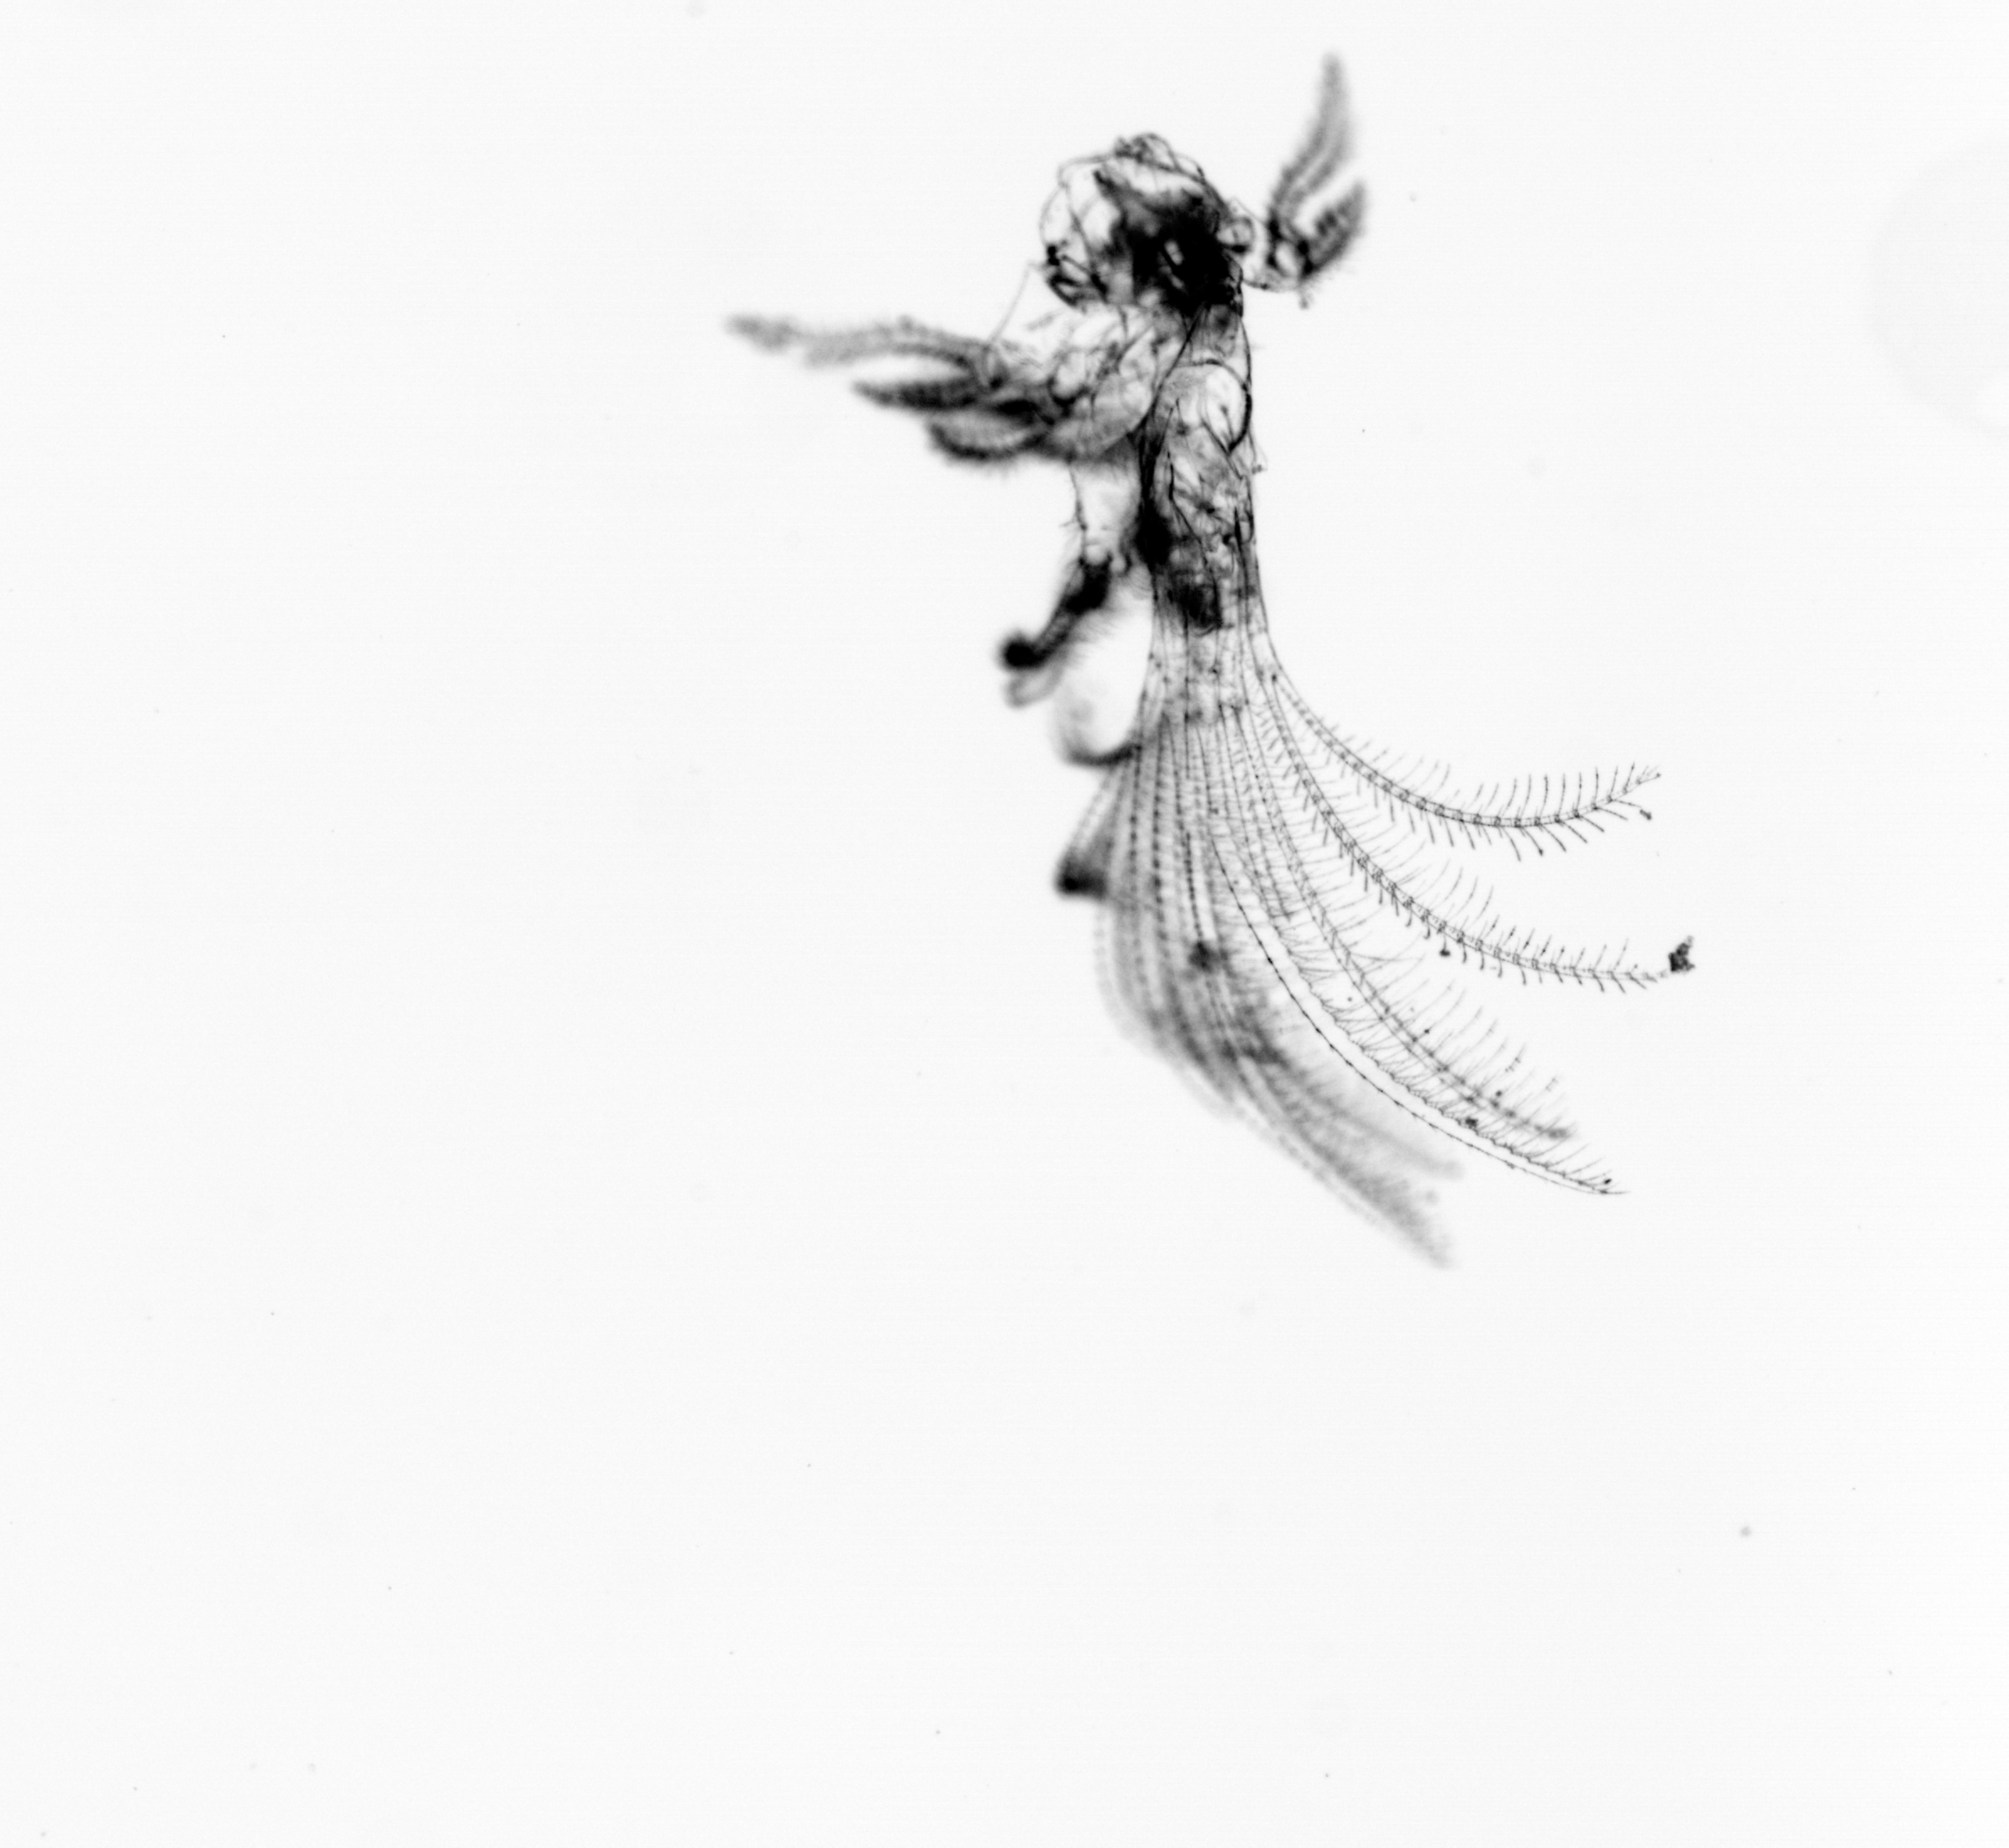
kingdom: Animalia
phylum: Chordata
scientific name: Chordata
